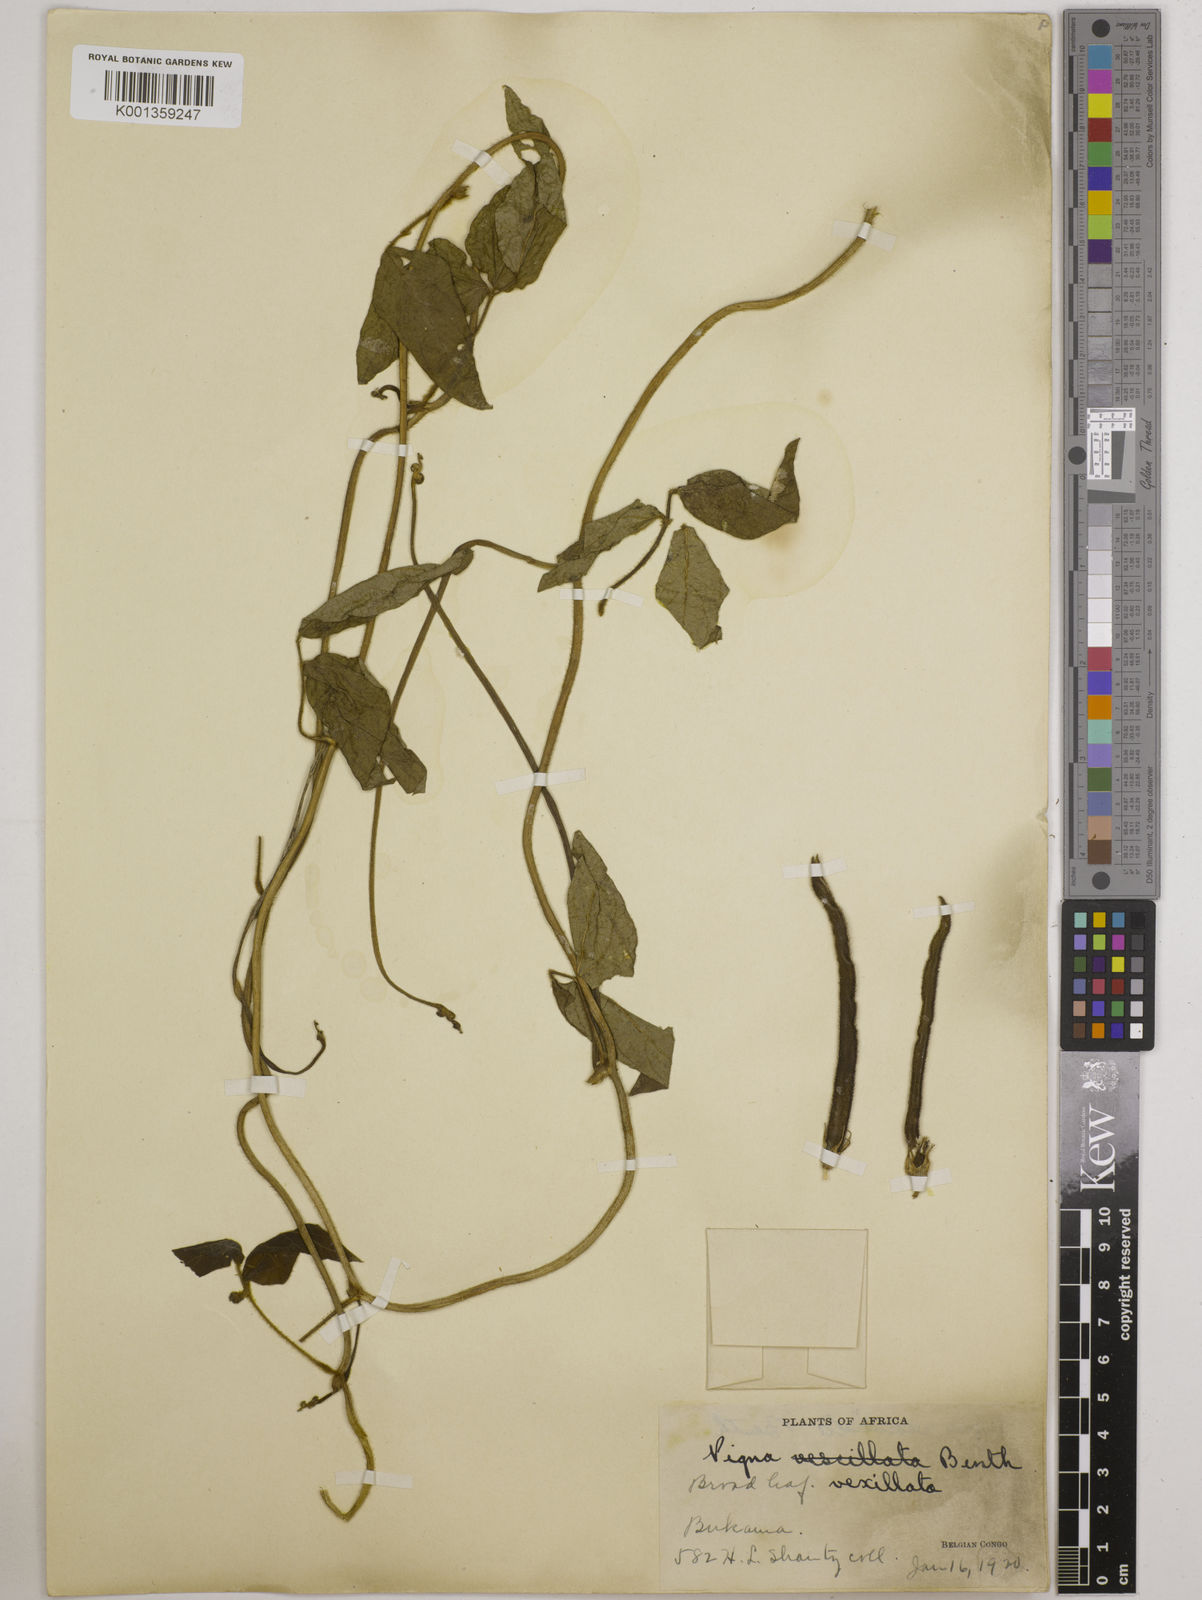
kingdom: Plantae
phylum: Tracheophyta
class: Magnoliopsida
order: Fabales
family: Fabaceae
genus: Vigna
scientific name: Vigna vexillata
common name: Zombi pea
